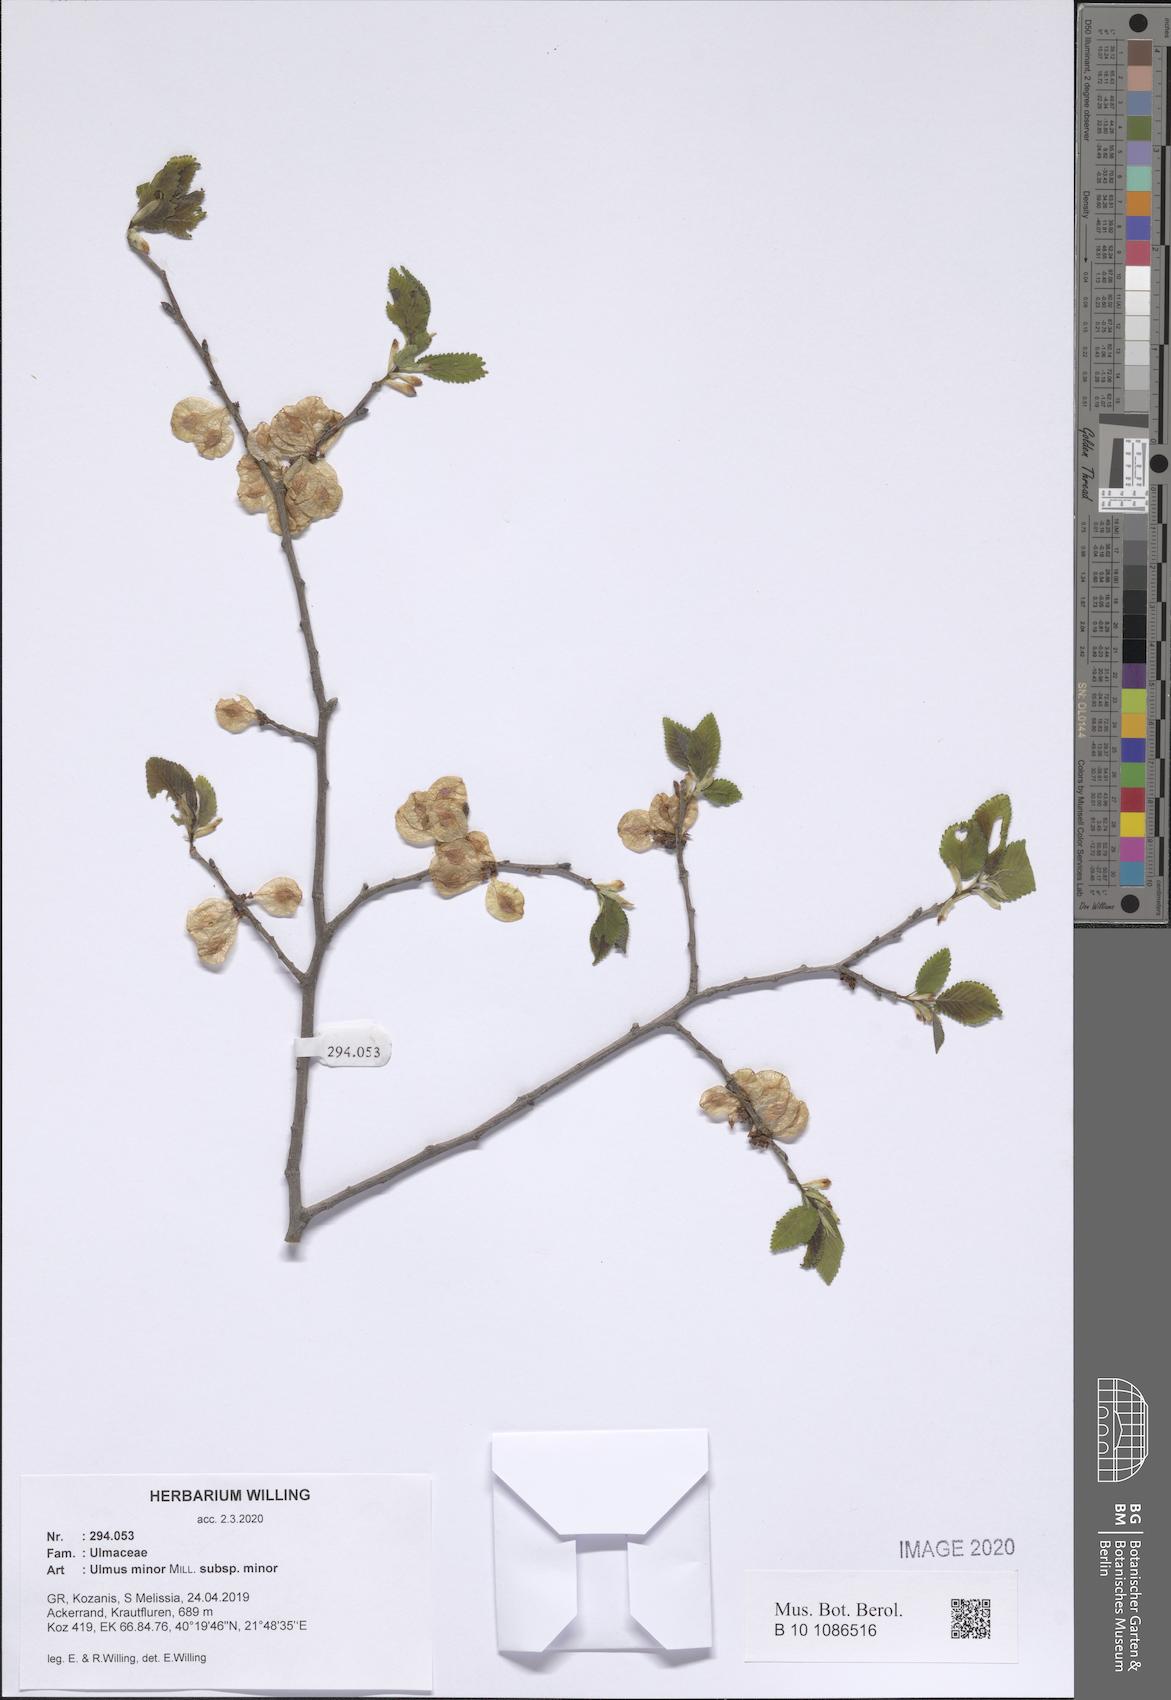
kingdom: Plantae
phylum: Tracheophyta
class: Magnoliopsida
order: Rosales
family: Ulmaceae
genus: Ulmus
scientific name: Ulmus minor
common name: Small-leaved elm
